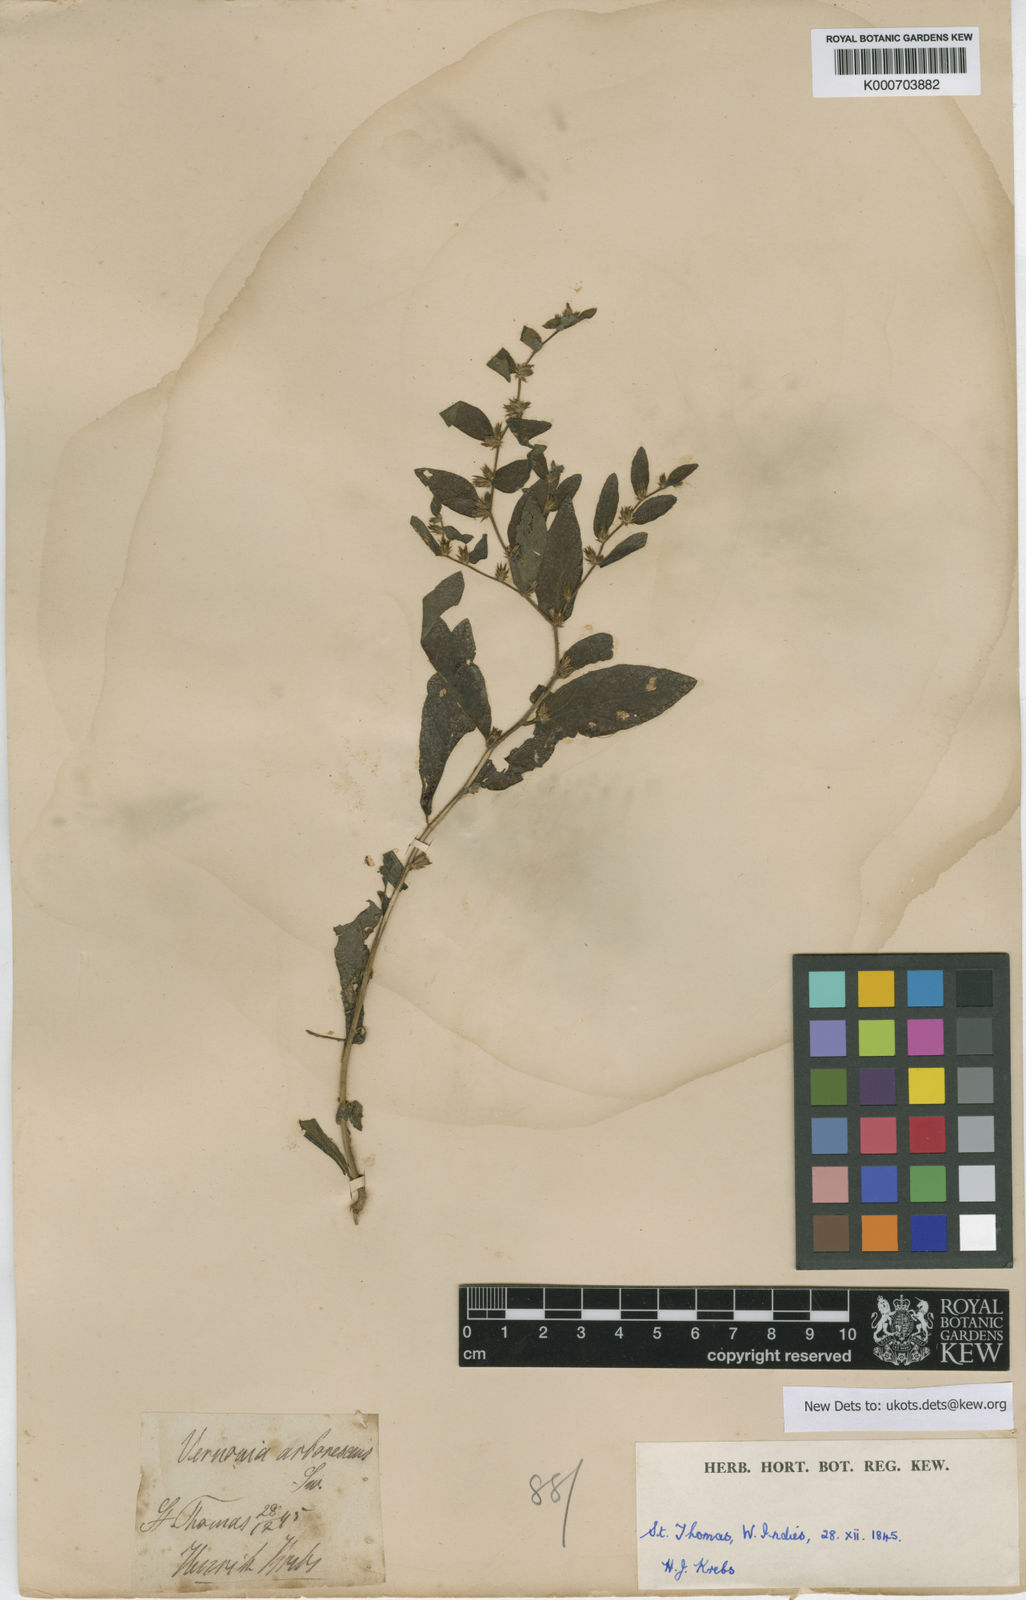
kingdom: Plantae
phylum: Tracheophyta
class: Magnoliopsida
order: Asterales
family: Asteraceae
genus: Lepidaploa
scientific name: Lepidaploa sericea
